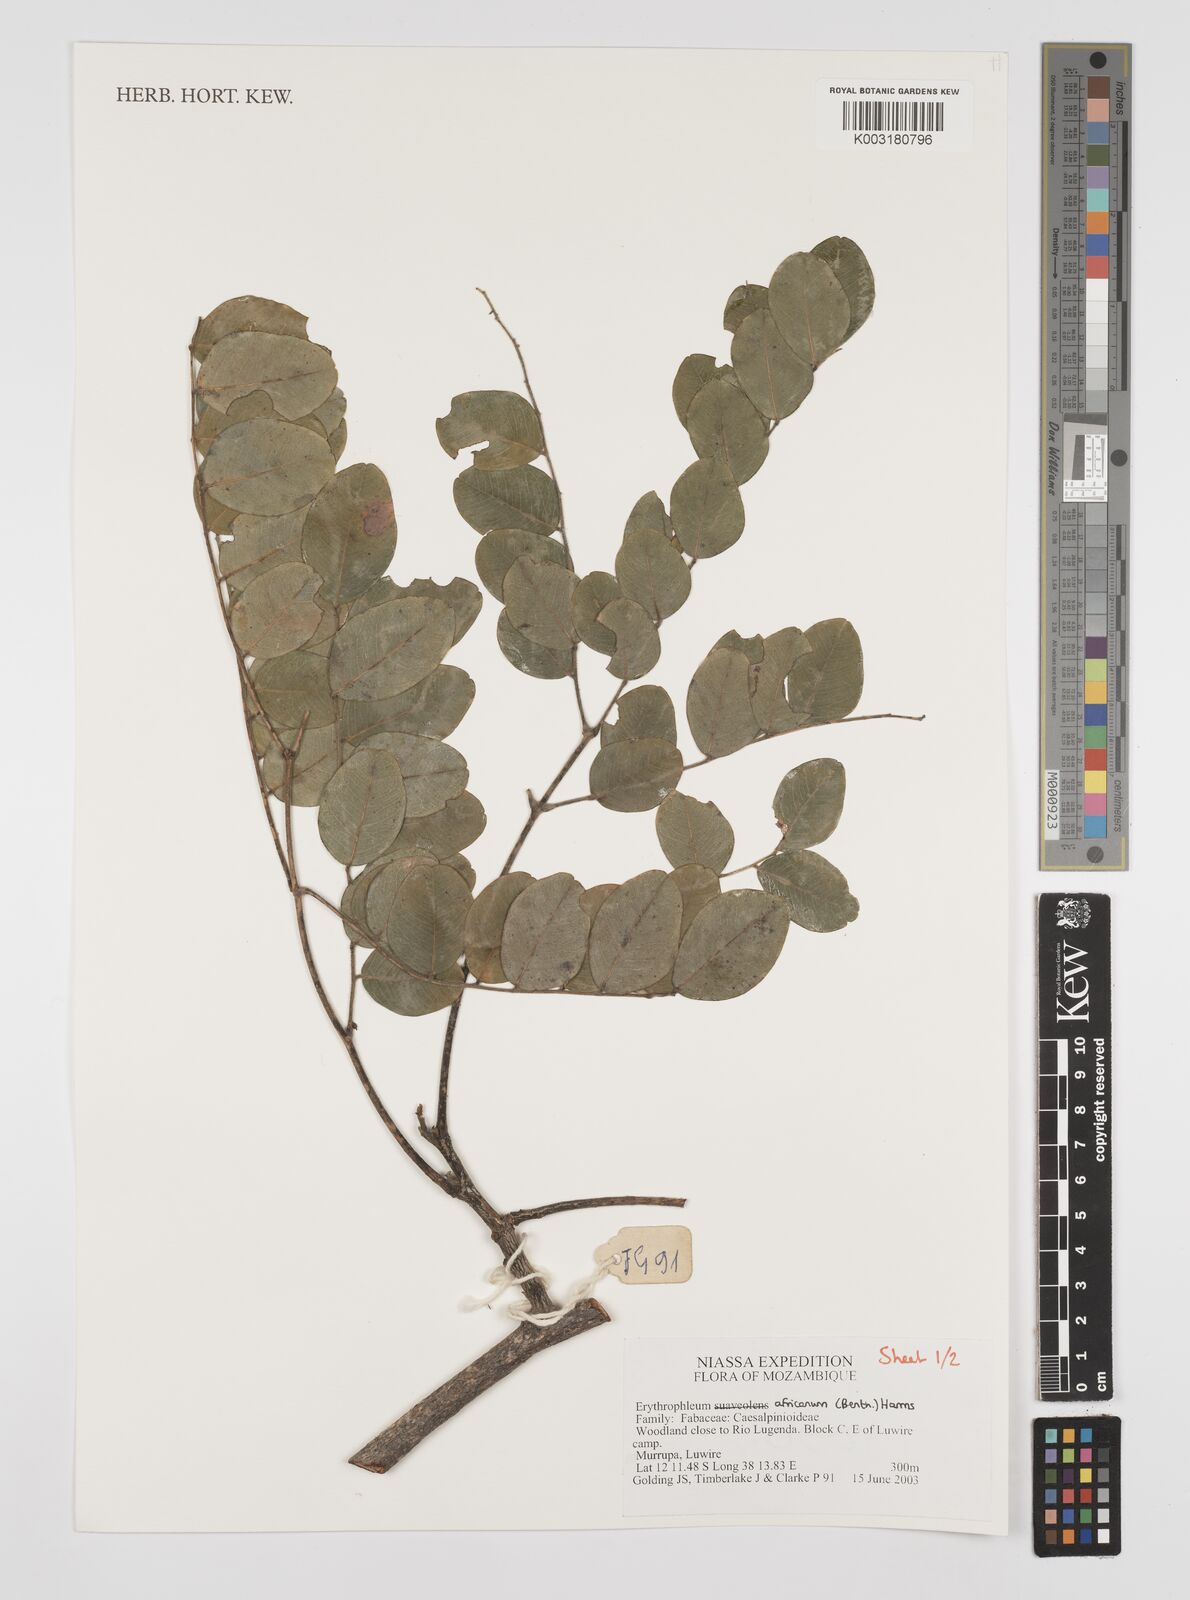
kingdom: Plantae
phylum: Tracheophyta
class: Magnoliopsida
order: Fabales
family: Fabaceae
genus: Peltophorum
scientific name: Peltophorum africanum
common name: African black wattle
